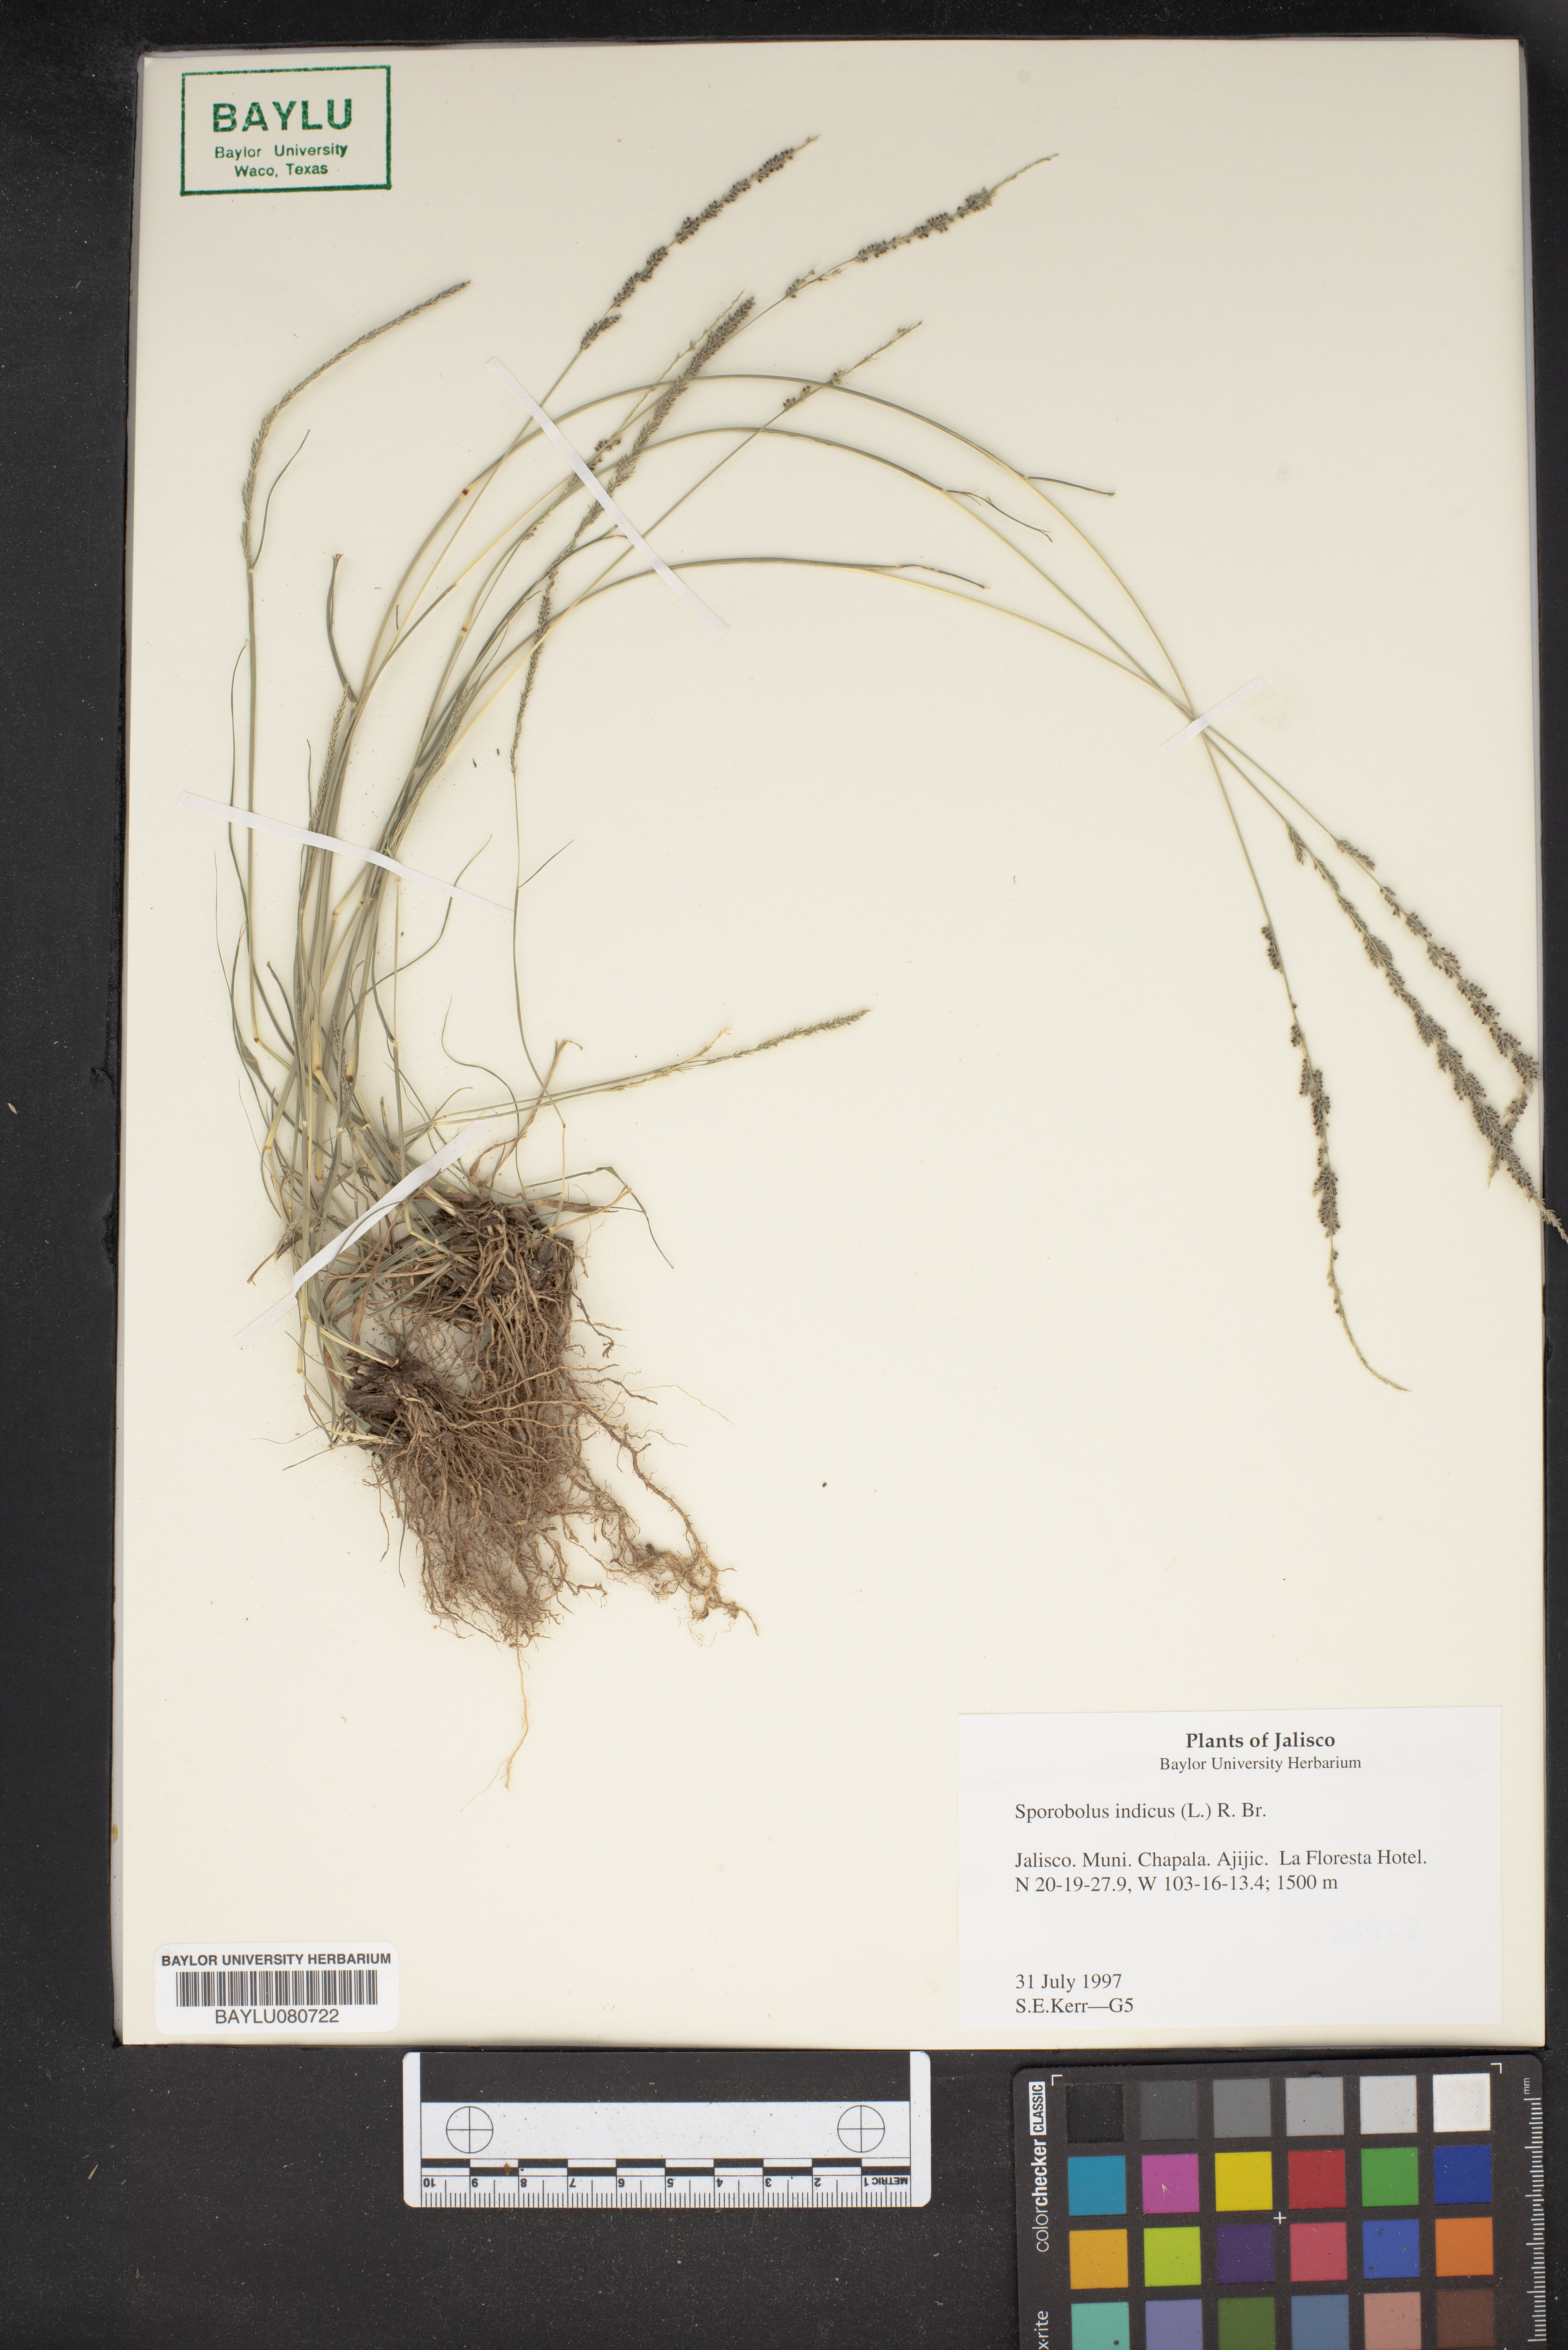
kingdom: Plantae
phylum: Tracheophyta
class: Liliopsida
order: Poales
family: Poaceae
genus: Sporobolus
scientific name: Sporobolus indicus
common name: Smut grass
